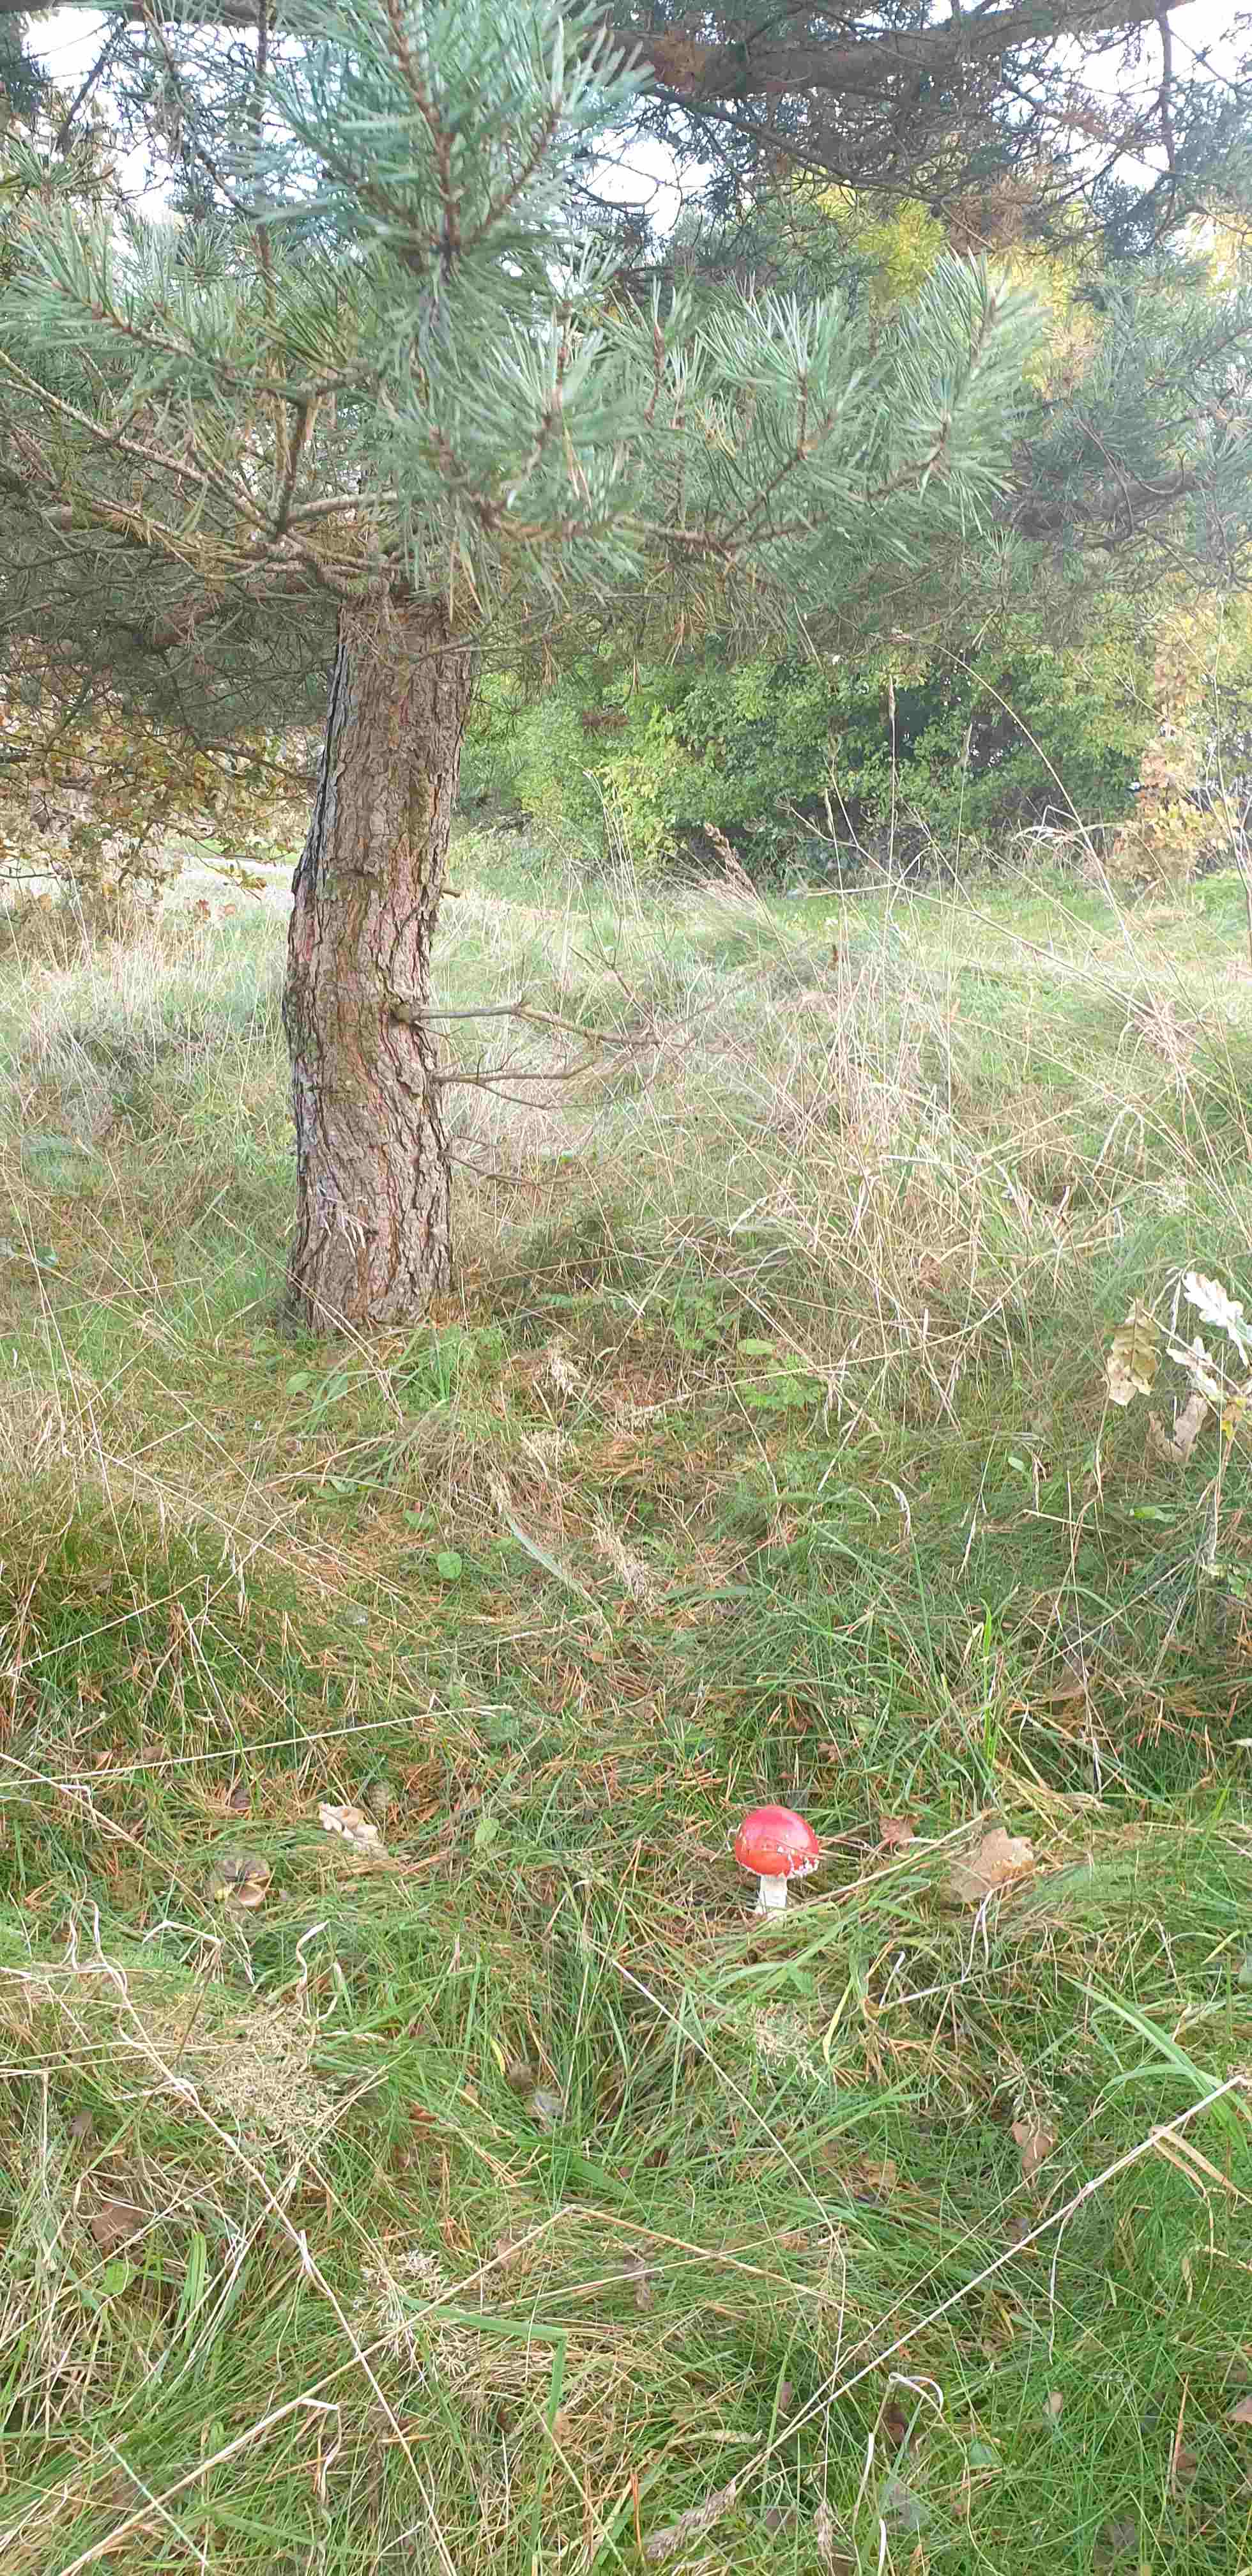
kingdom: Fungi
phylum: Basidiomycota
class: Agaricomycetes
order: Agaricales
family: Amanitaceae
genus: Amanita
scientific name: Amanita muscaria
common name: rød fluesvamp
